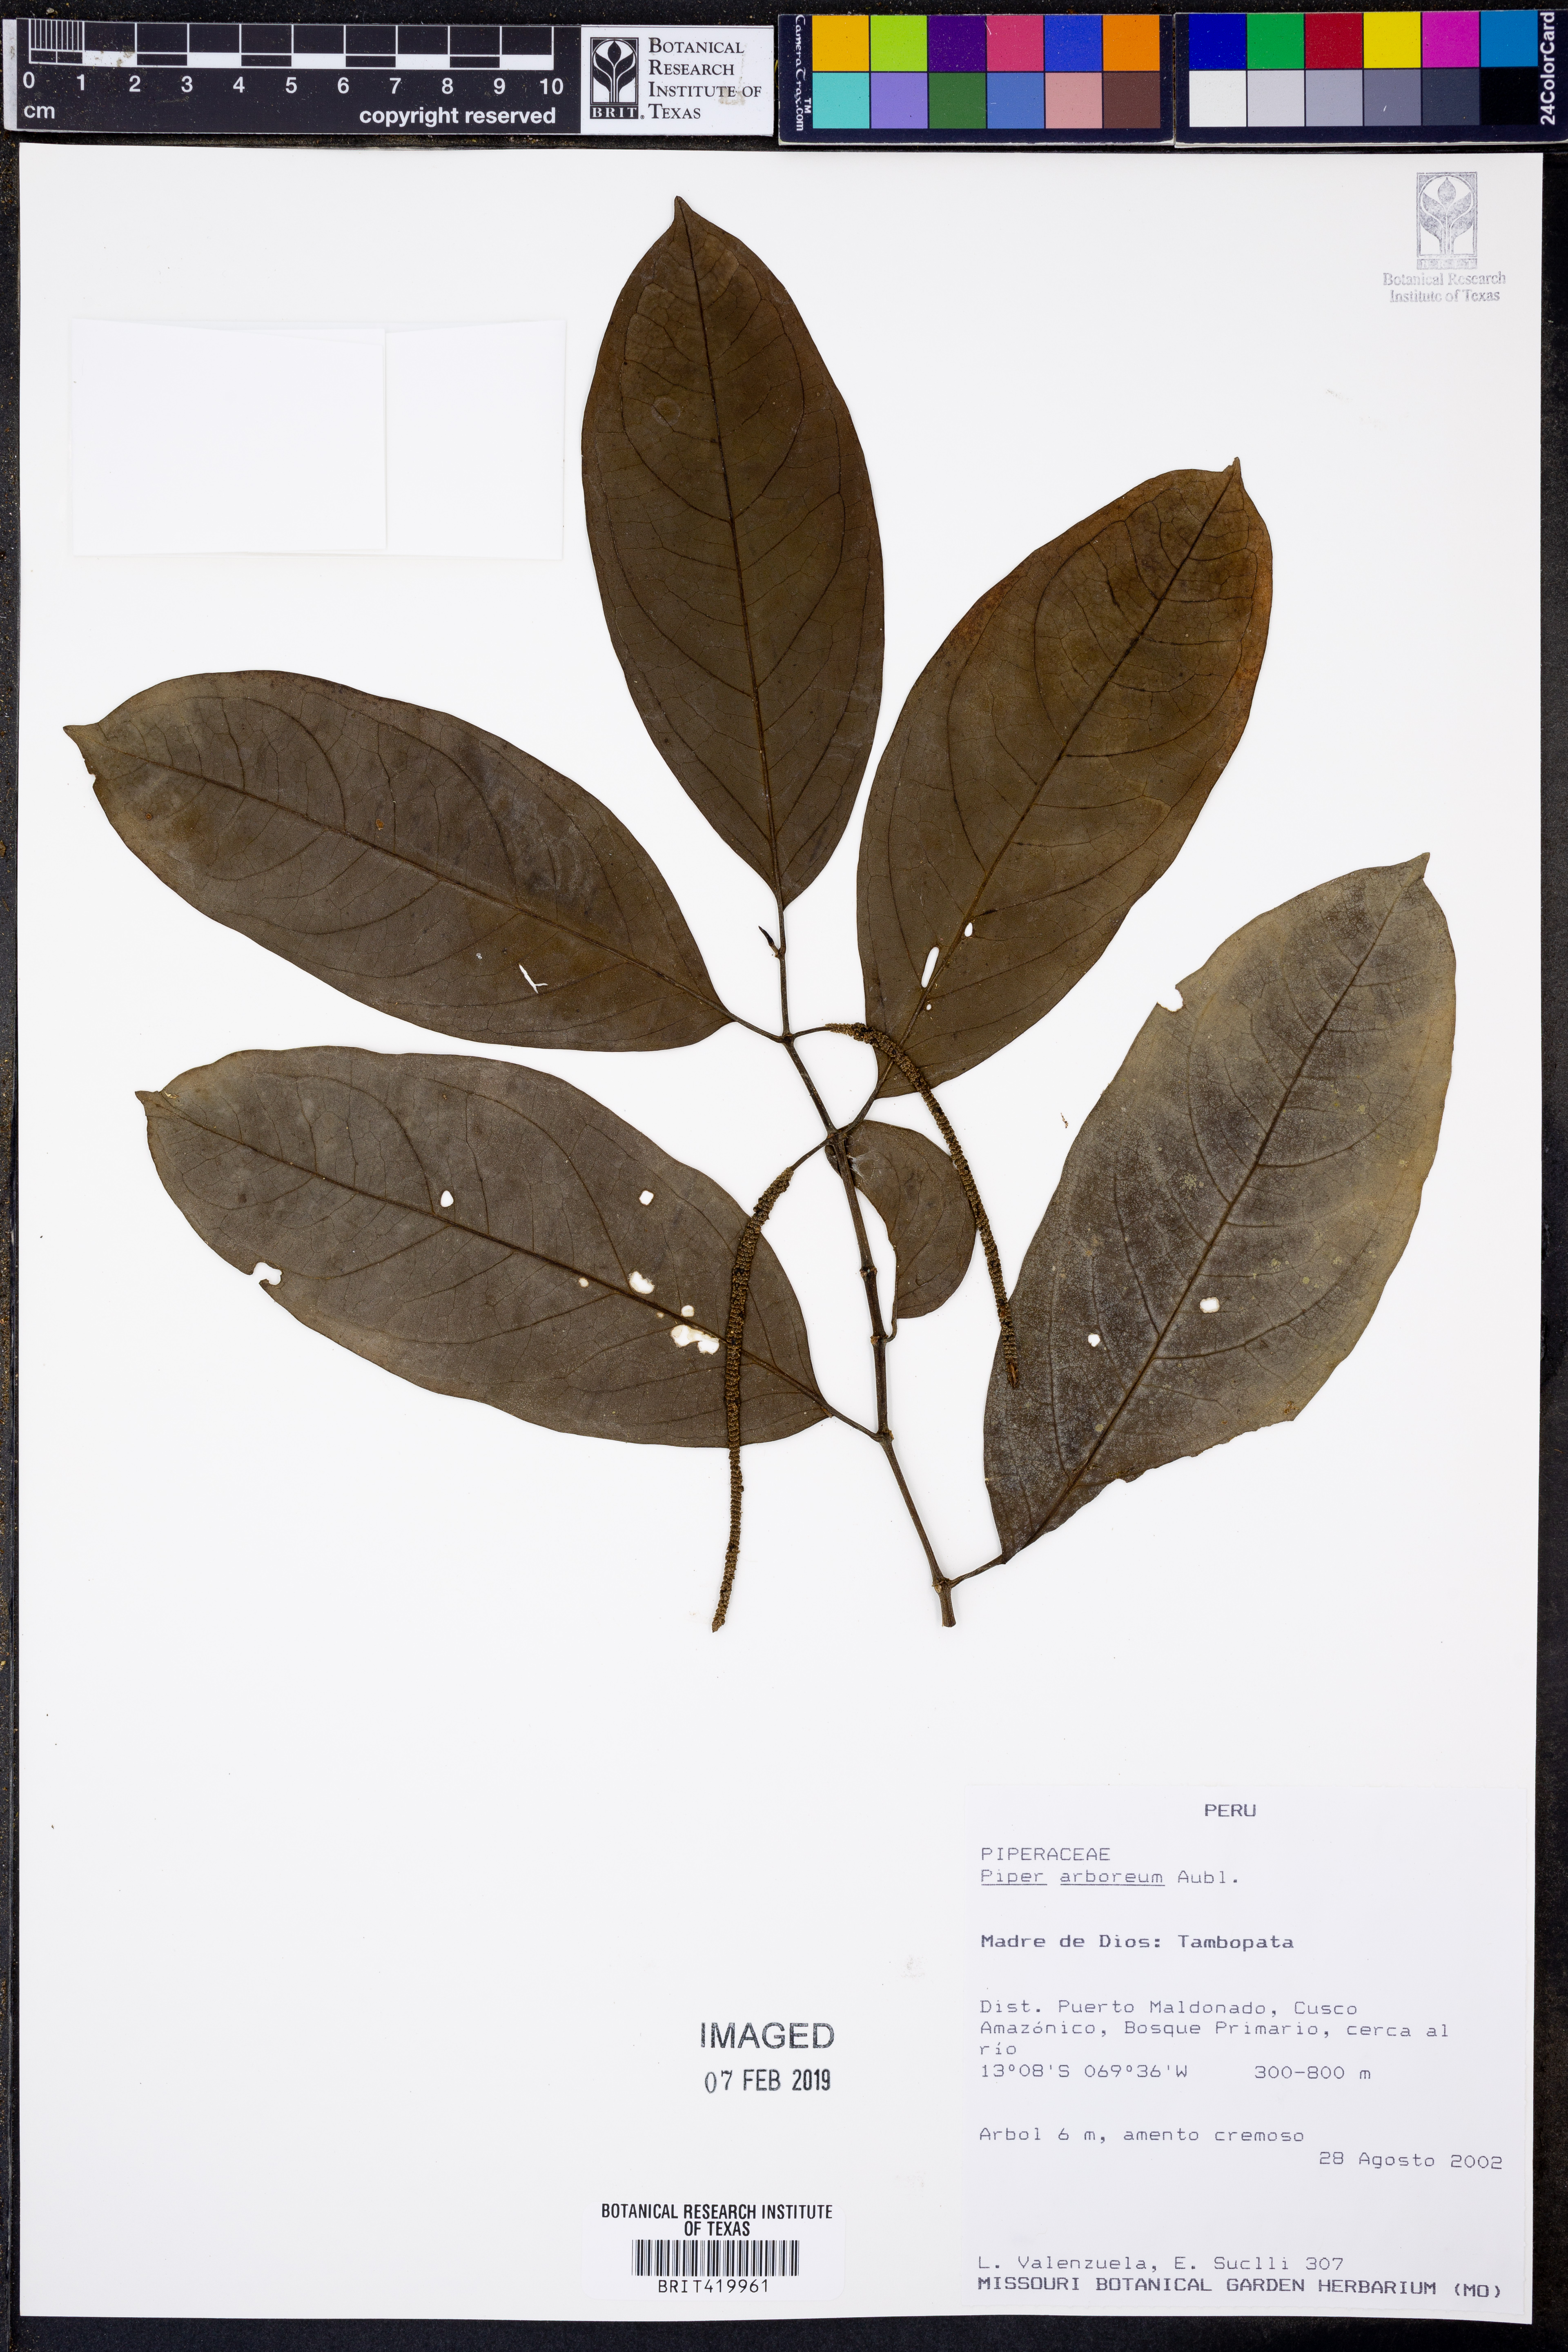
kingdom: Plantae
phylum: Tracheophyta
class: Magnoliopsida
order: Piperales
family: Piperaceae
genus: Piper
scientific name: Piper arboreum
